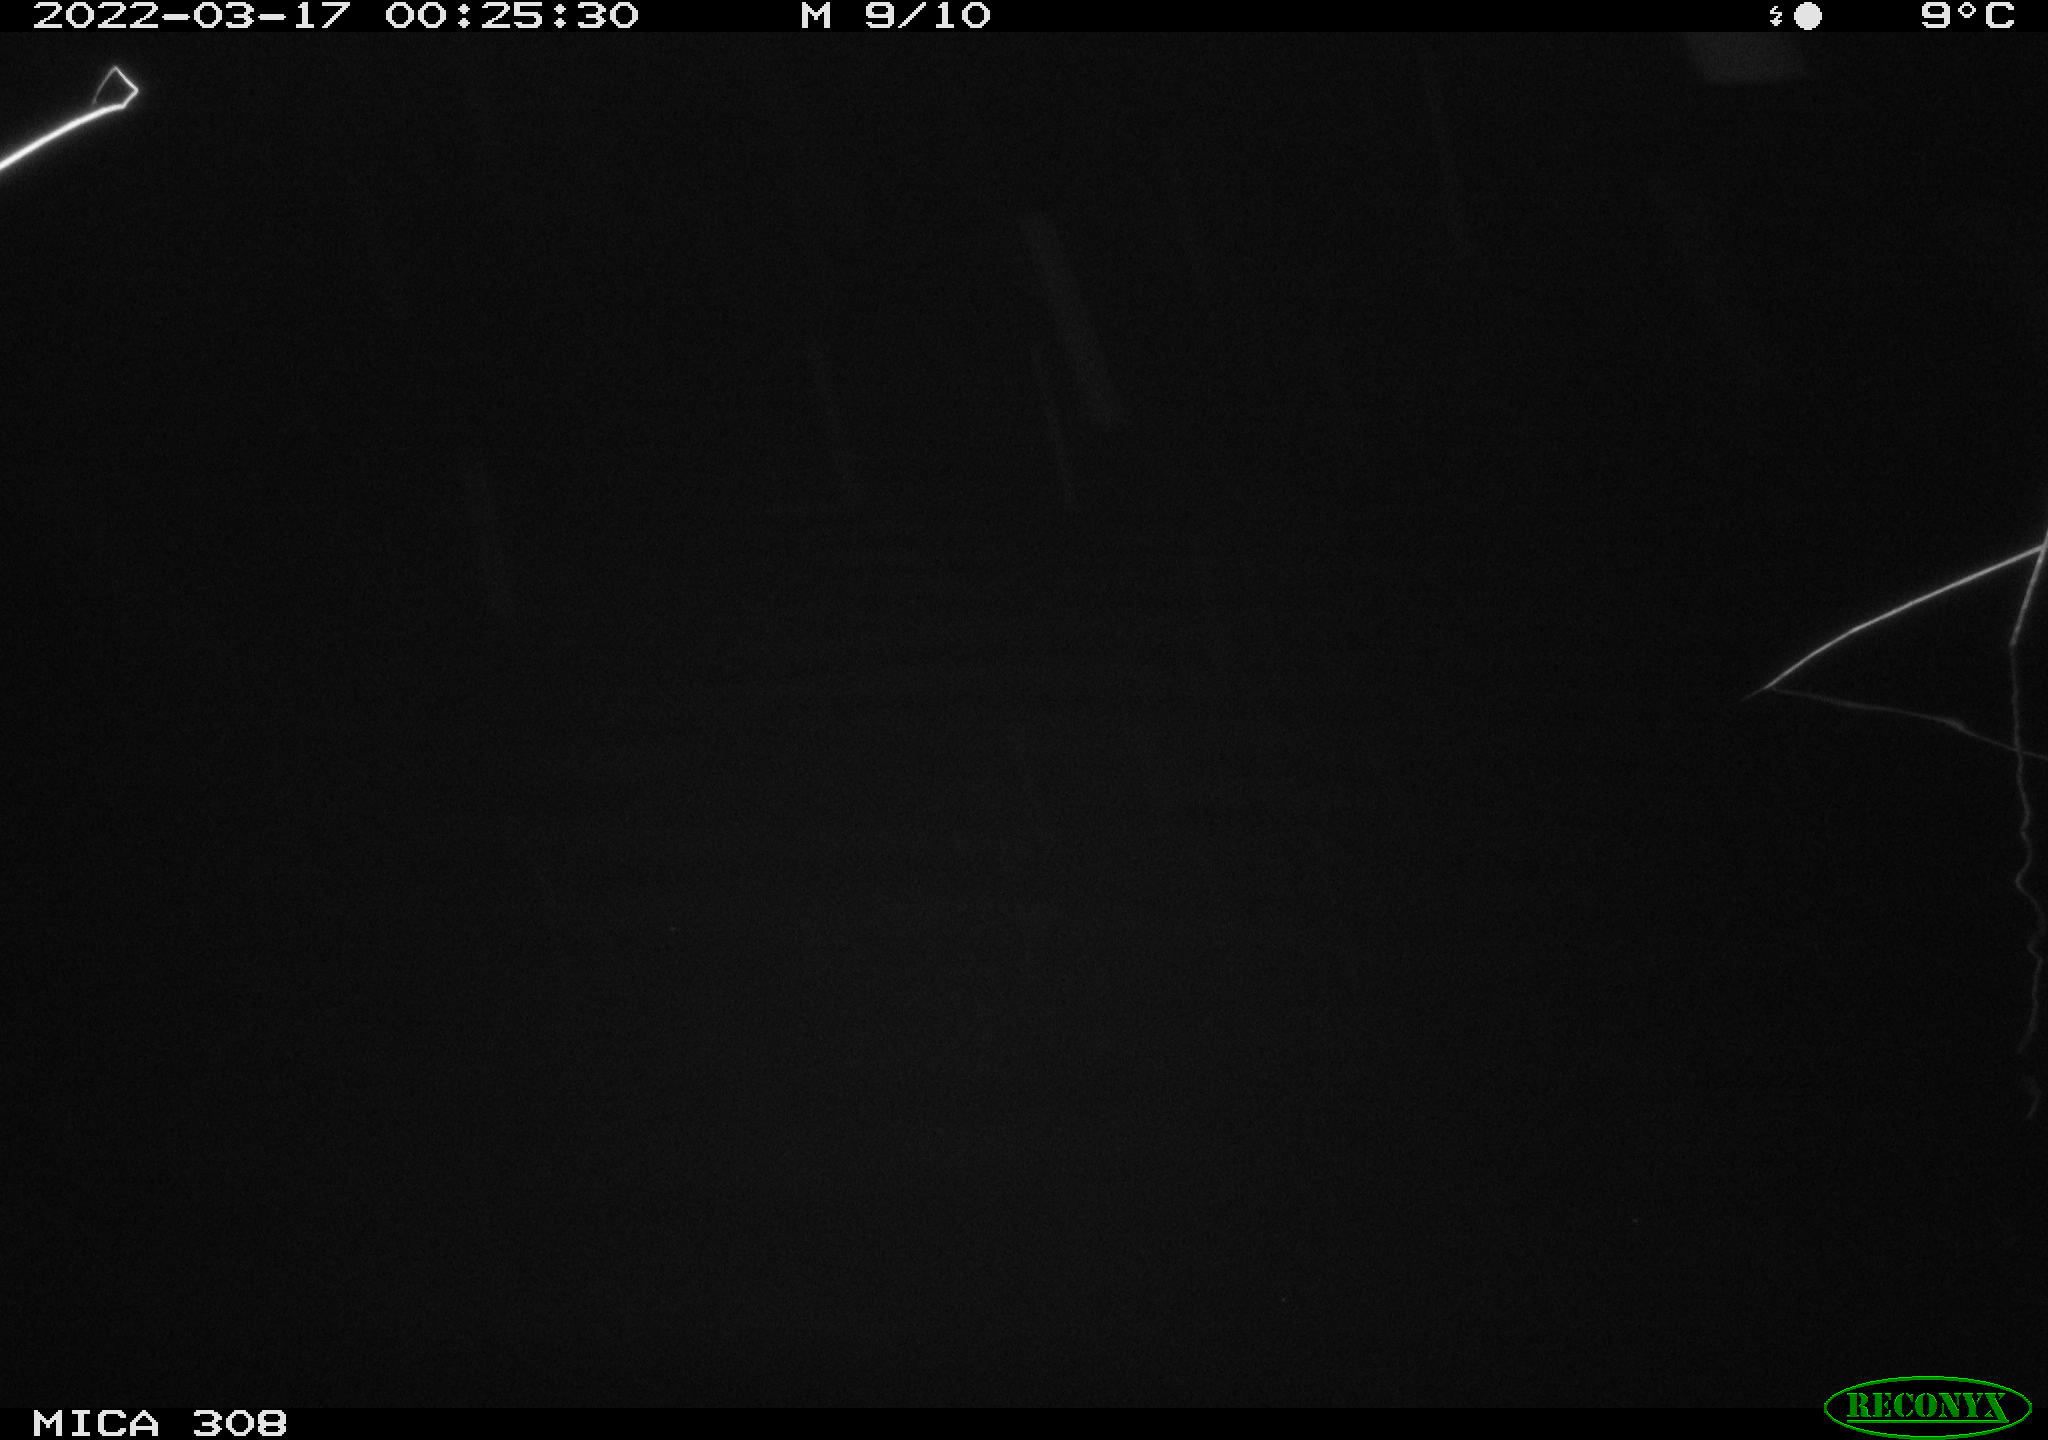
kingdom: Animalia
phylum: Chordata
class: Mammalia
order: Rodentia
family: Cricetidae
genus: Ondatra
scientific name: Ondatra zibethicus
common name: Muskrat
